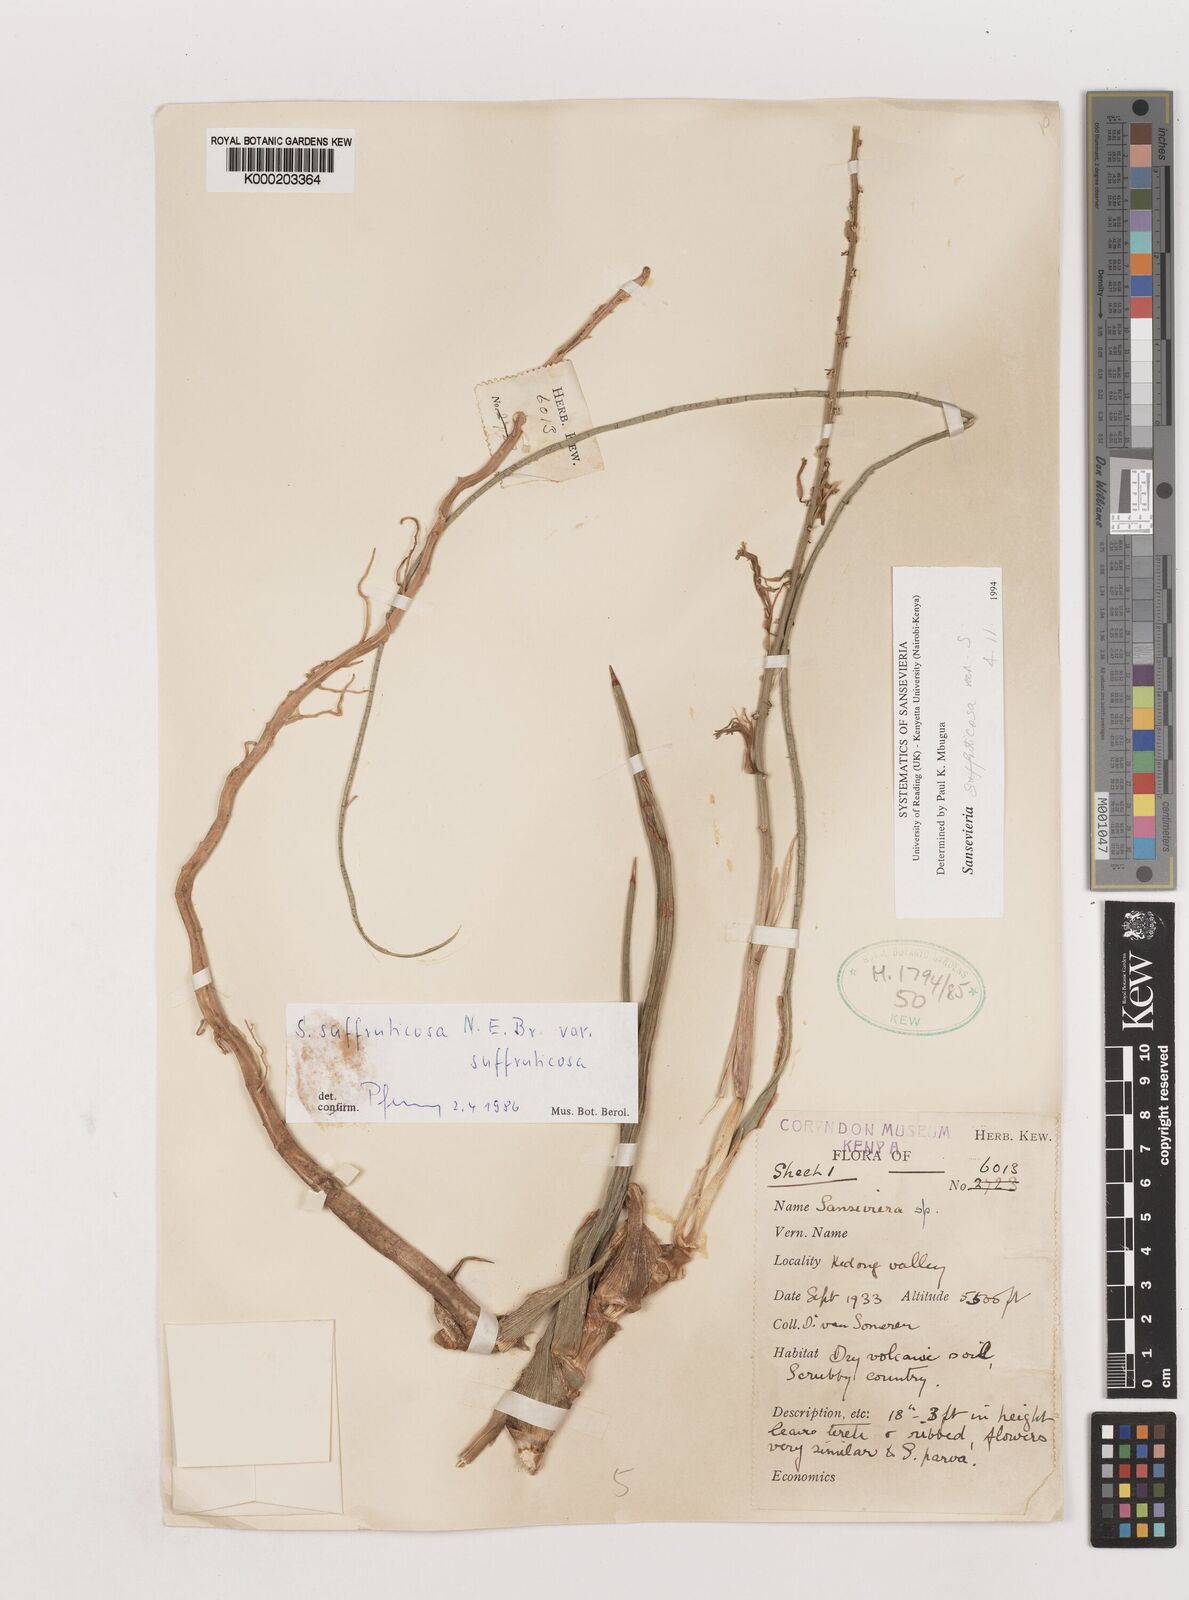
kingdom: Plantae
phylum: Tracheophyta
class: Liliopsida
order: Asparagales
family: Asparagaceae
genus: Dracaena
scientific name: Dracaena suffruticosa
